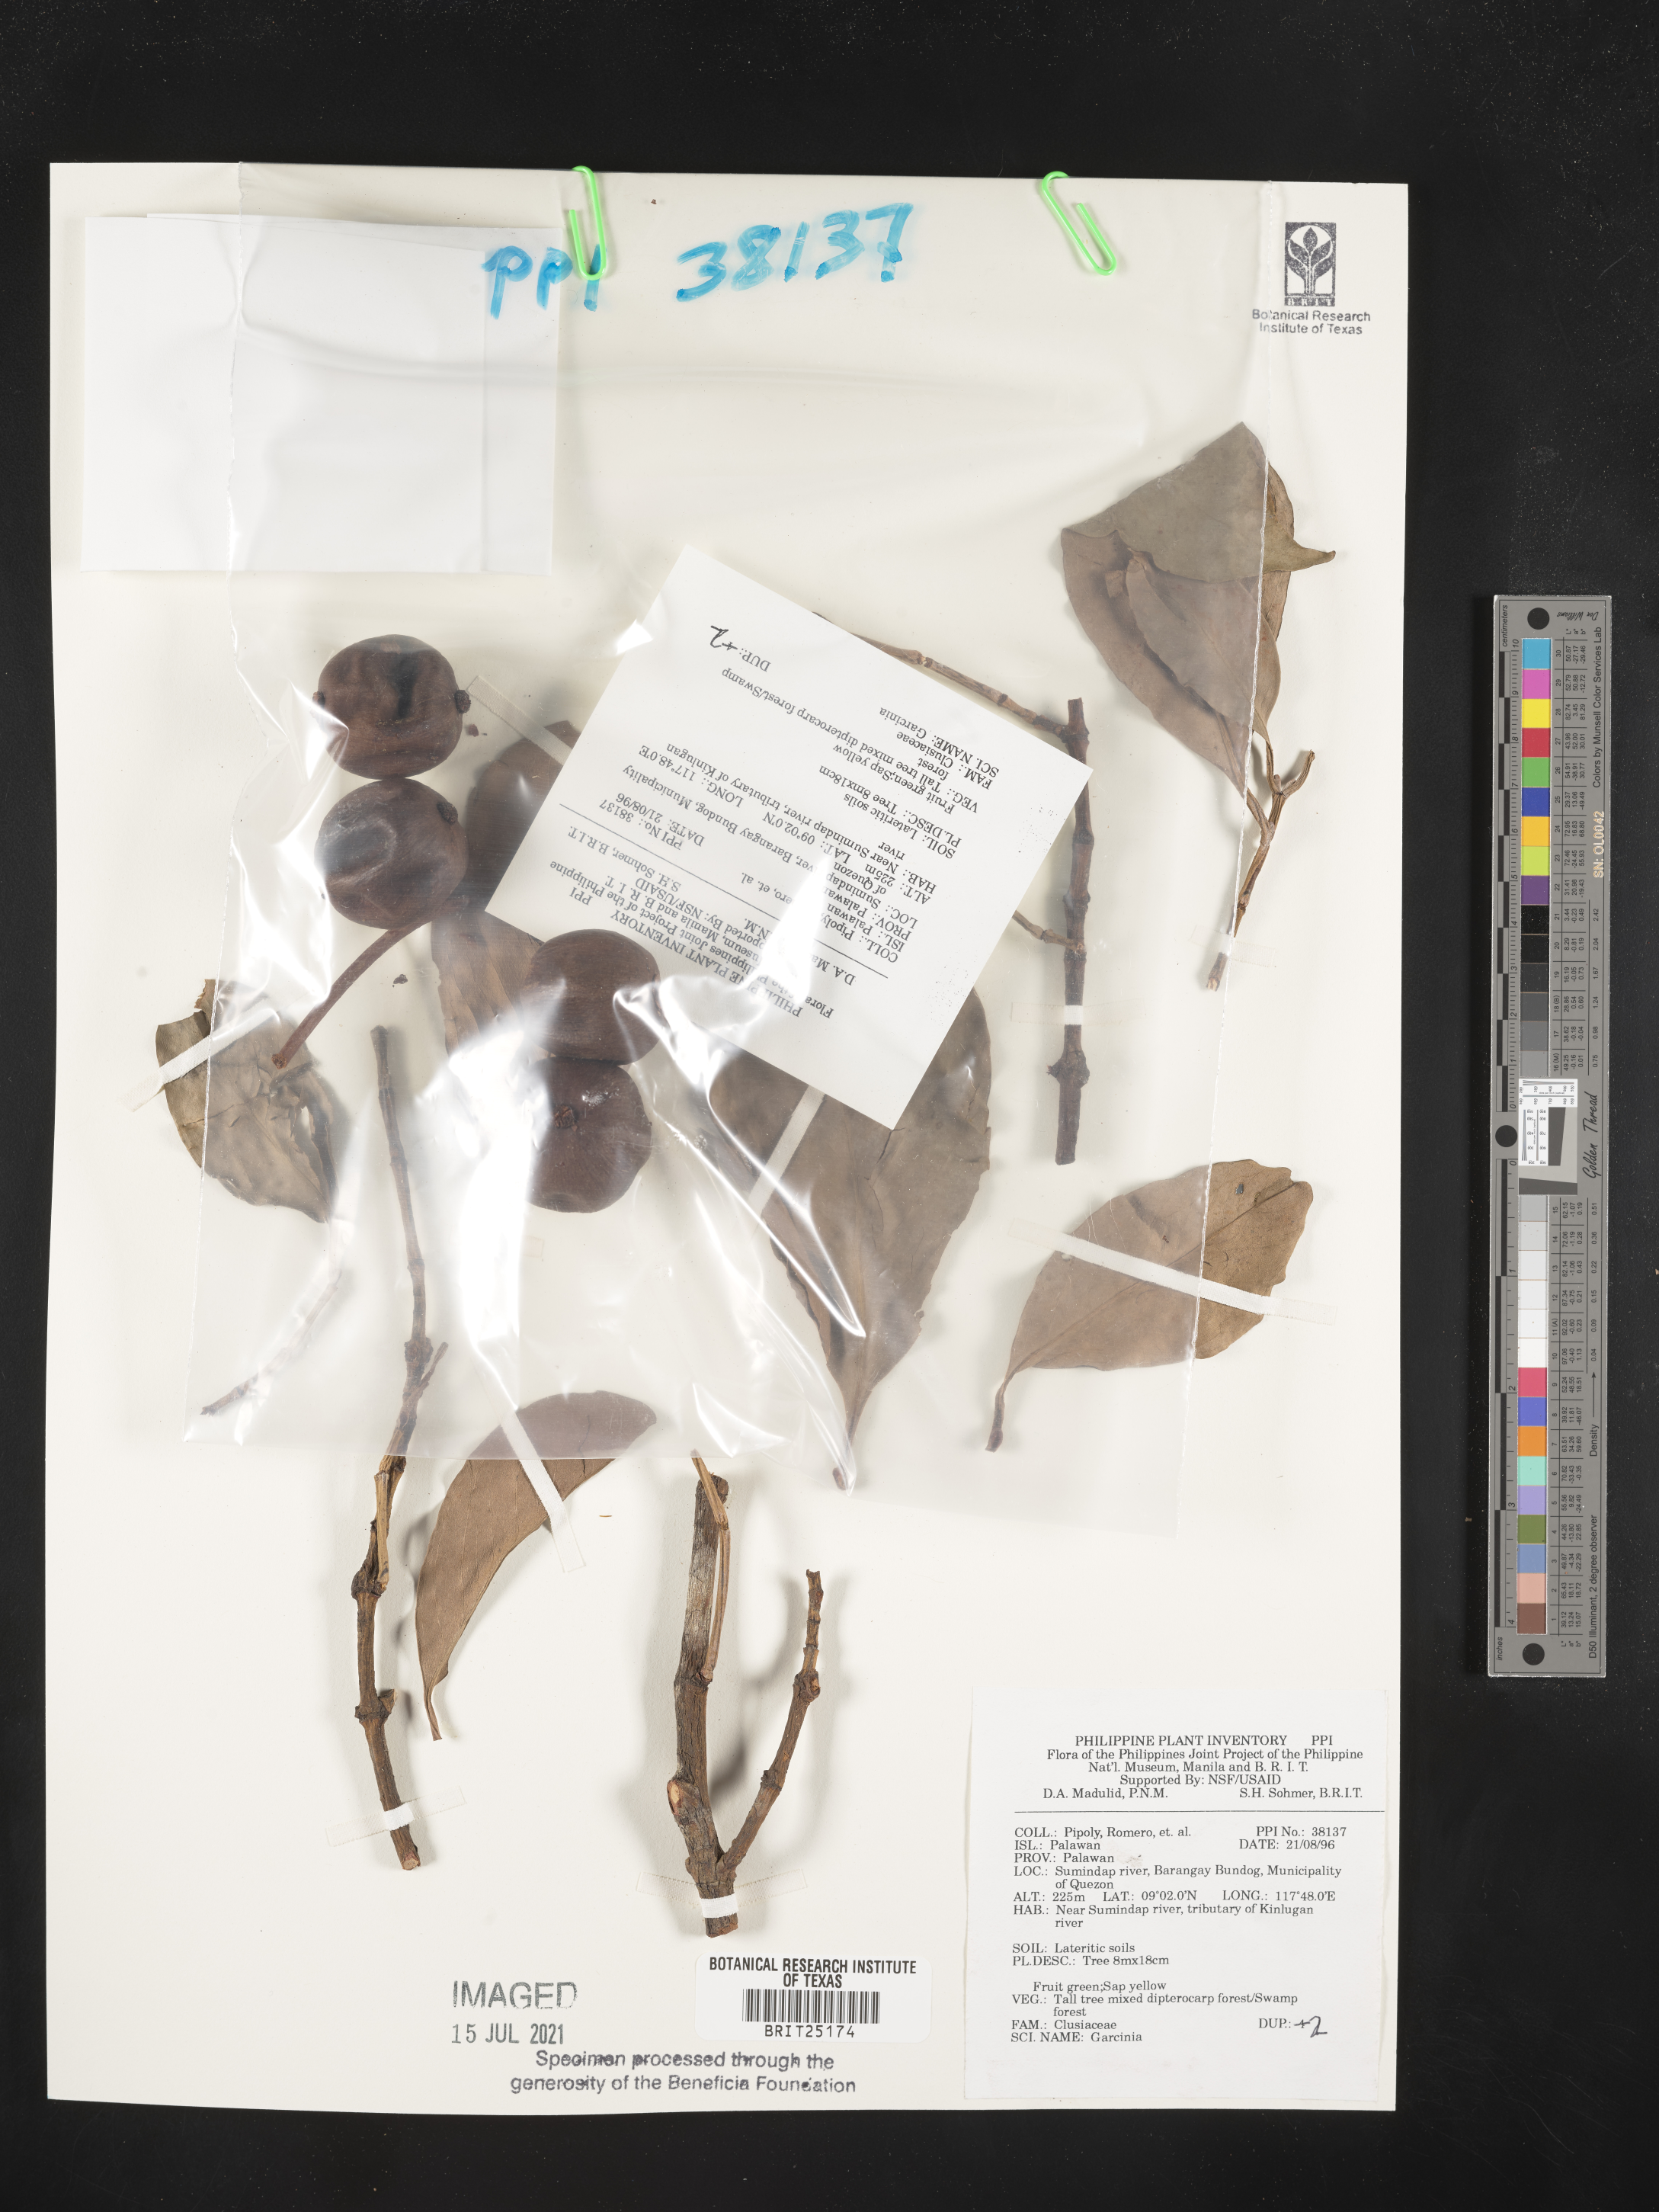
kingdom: Plantae
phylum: Tracheophyta
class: Magnoliopsida
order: Malpighiales
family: Clusiaceae
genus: Garcinia
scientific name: Garcinia
